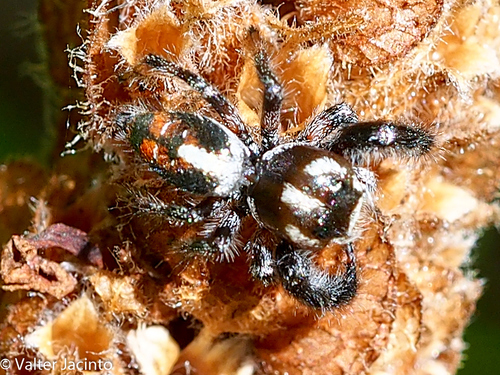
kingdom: Animalia
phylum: Arthropoda
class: Arachnida
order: Araneae
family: Salticidae
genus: Thyene
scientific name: Thyene imperialis
